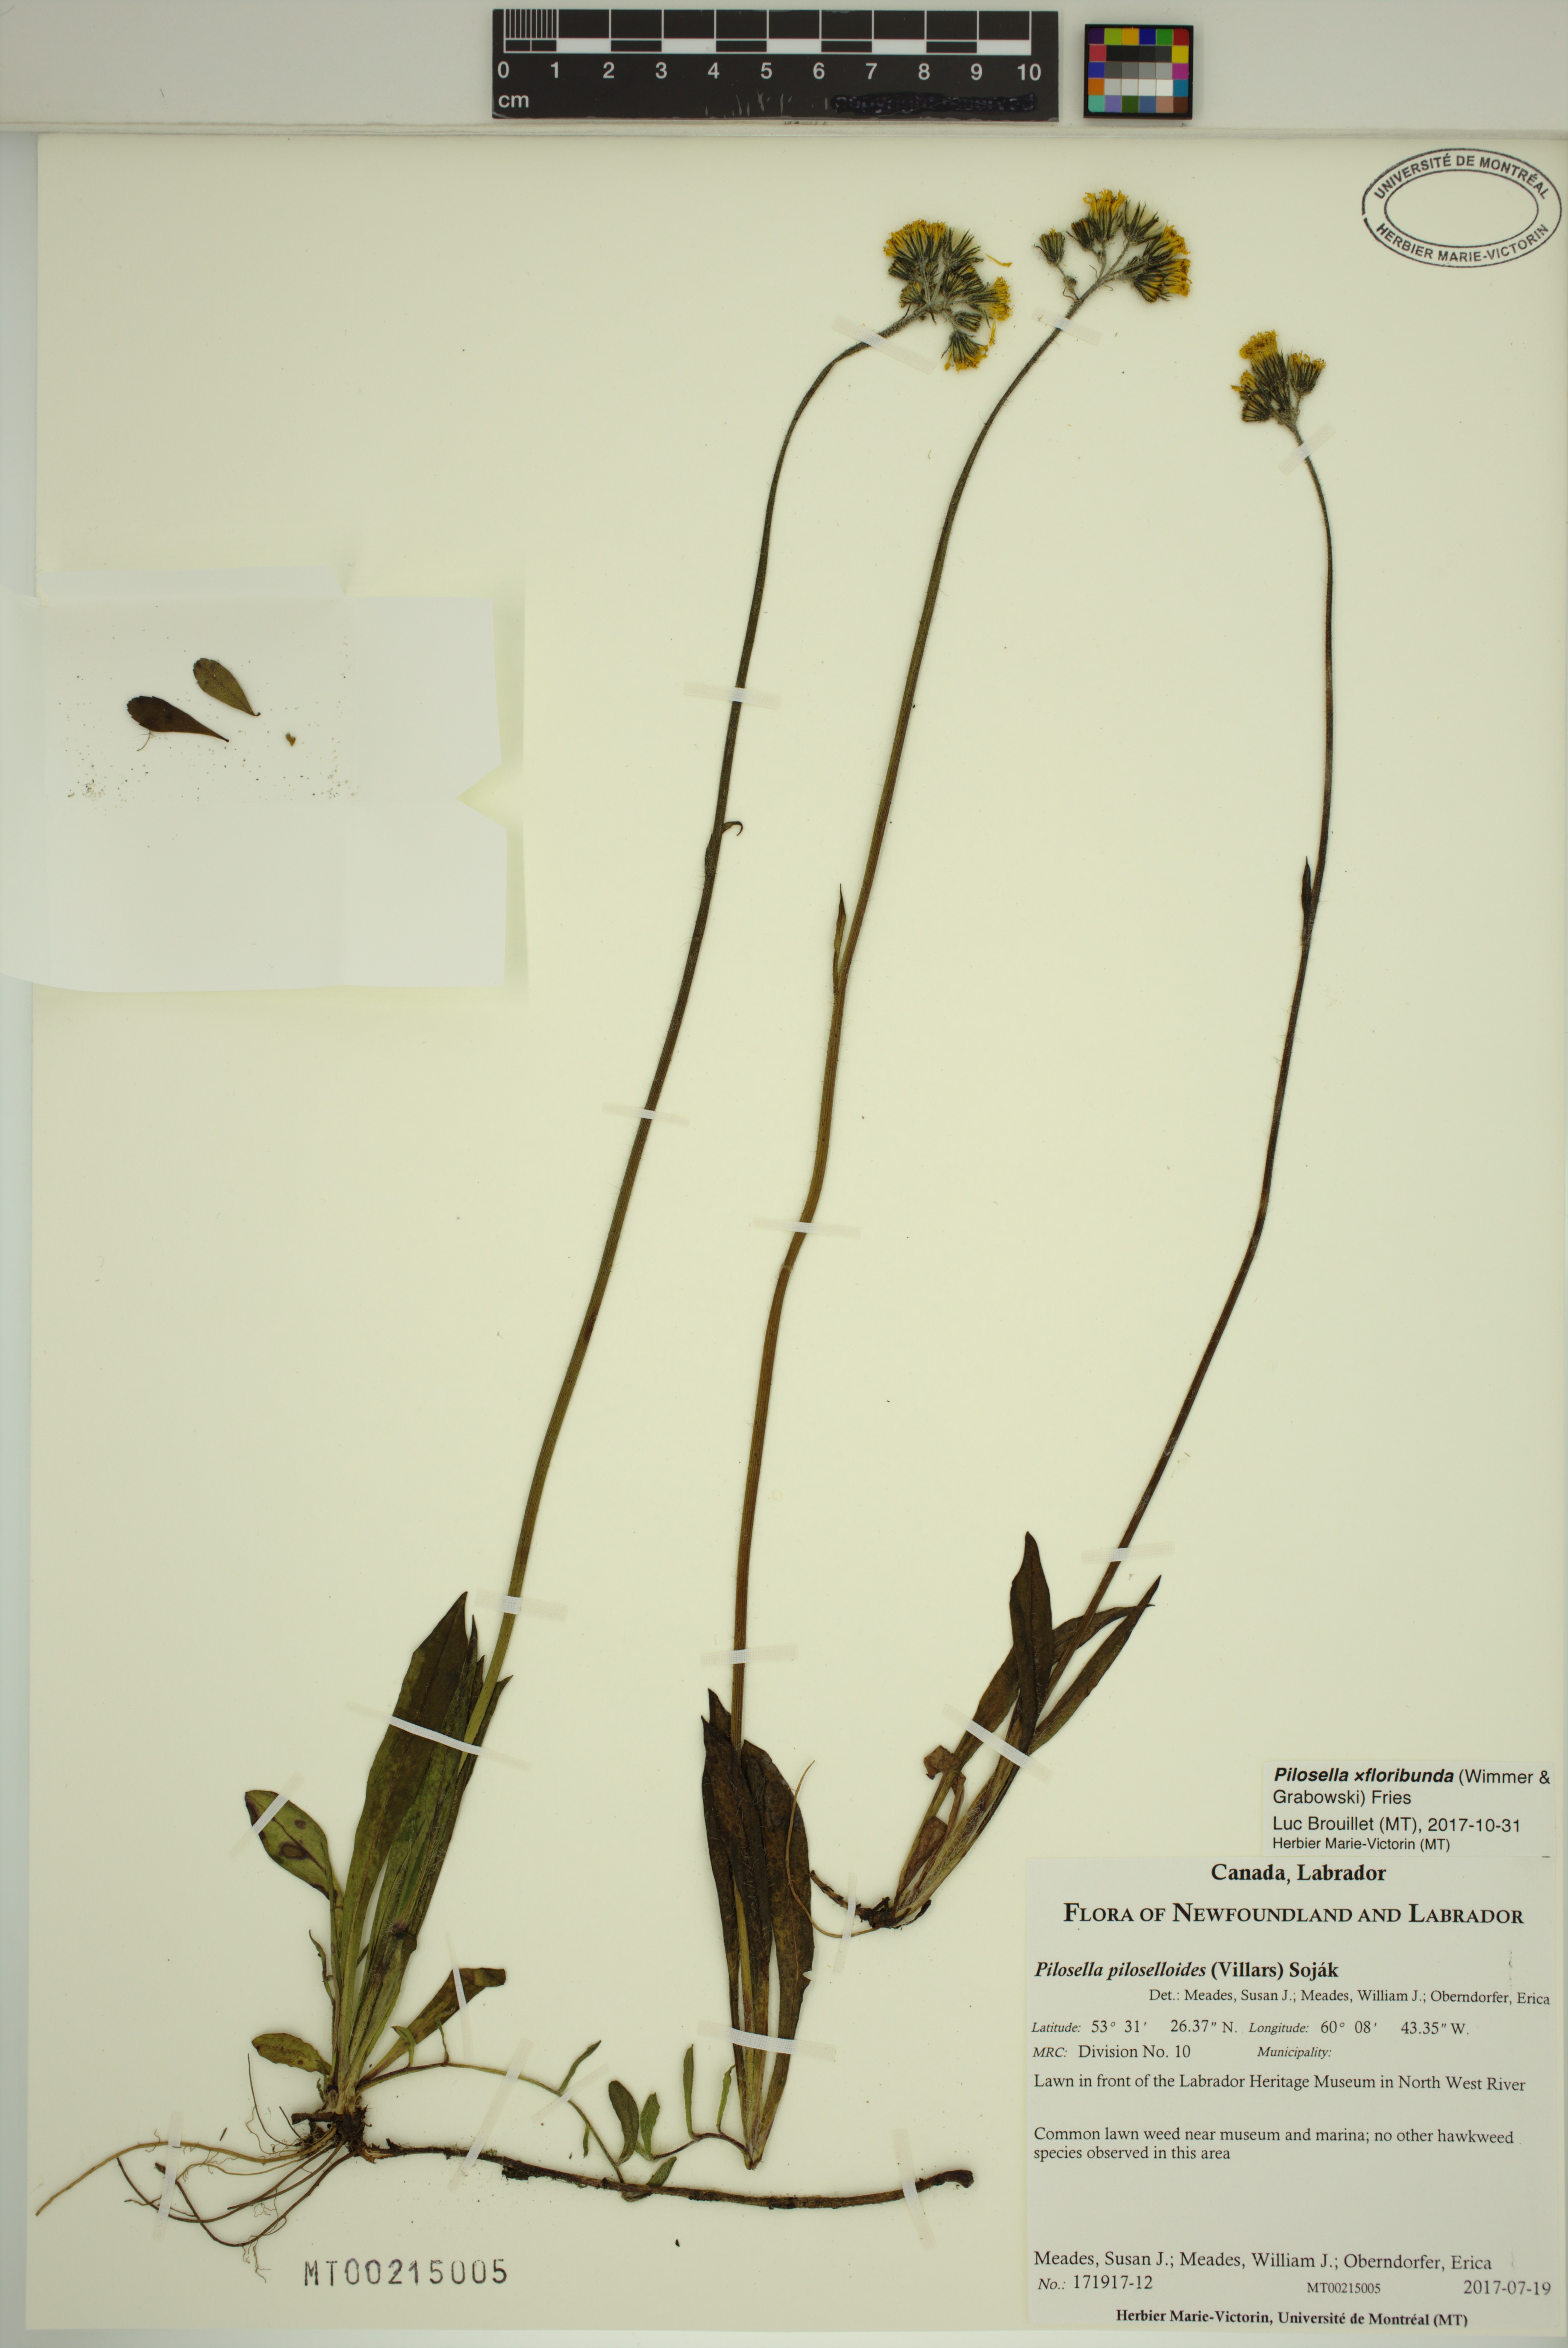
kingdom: Plantae
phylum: Tracheophyta
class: Magnoliopsida
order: Asterales
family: Asteraceae
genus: Pilosella
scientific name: Pilosella piloselloides
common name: Glaucous king-devil
